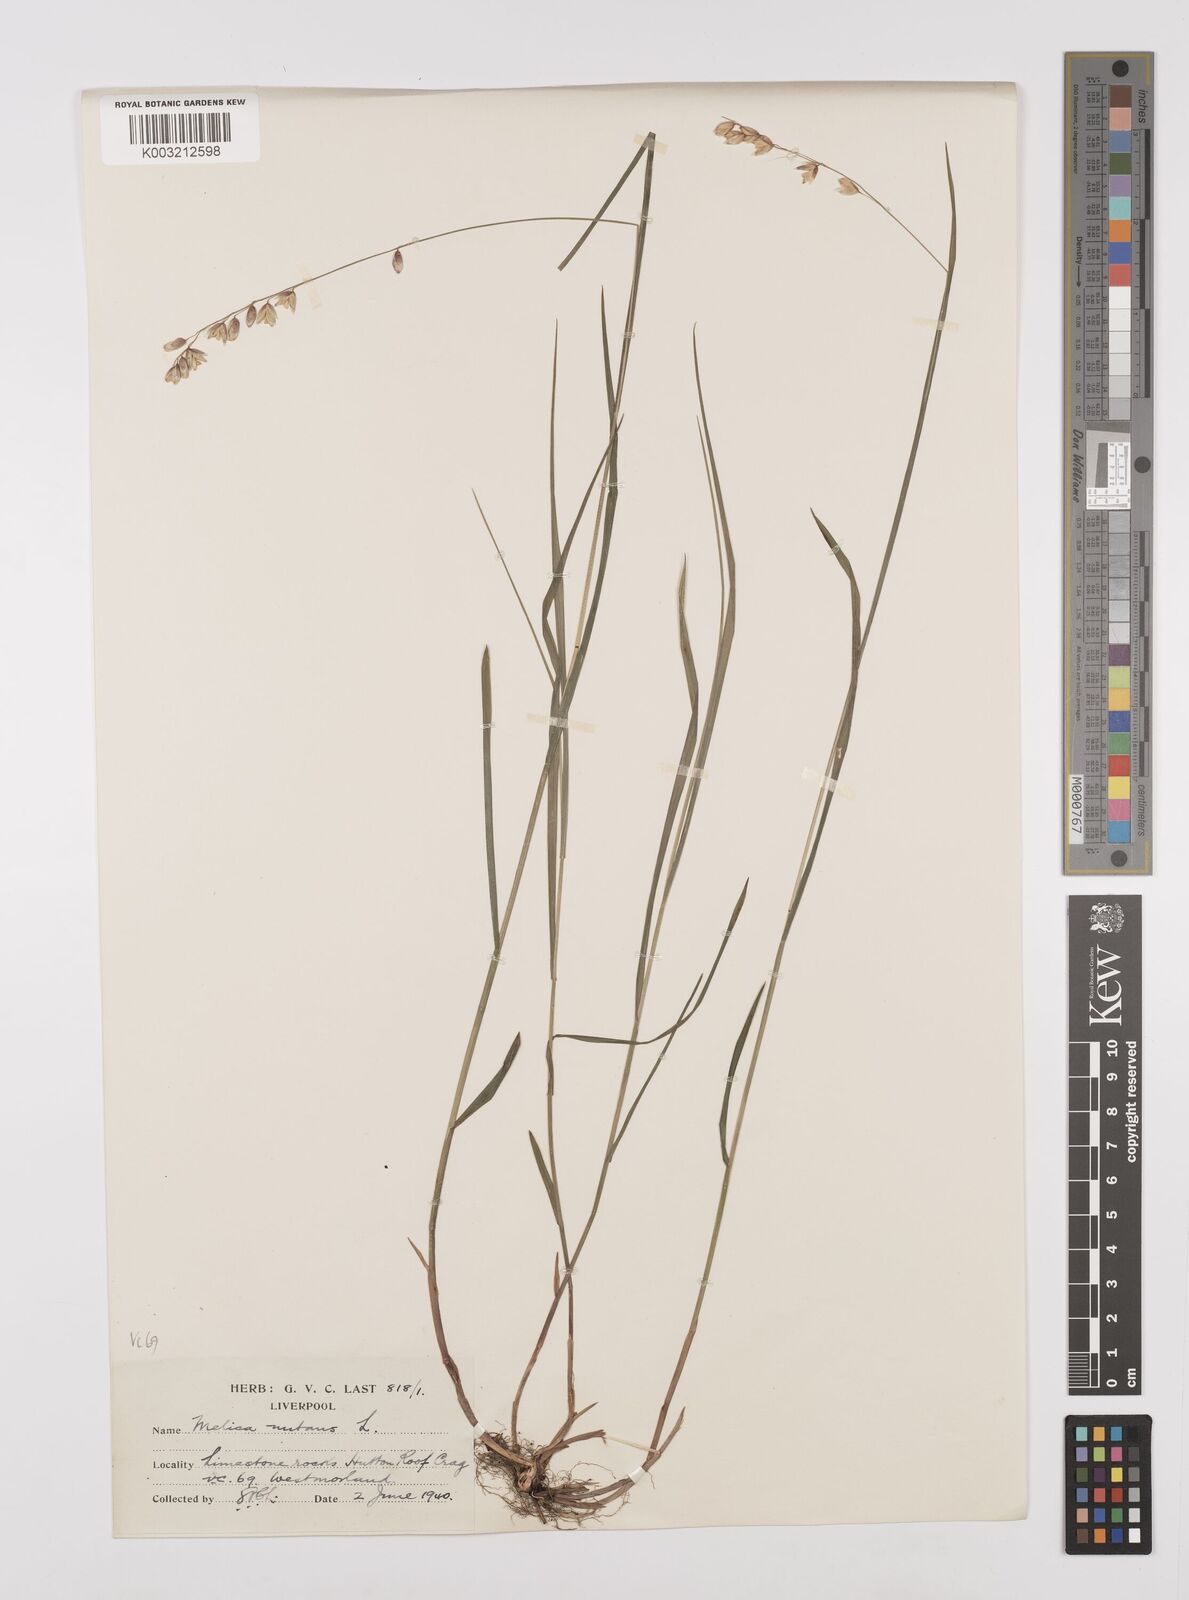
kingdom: Plantae
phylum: Tracheophyta
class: Liliopsida
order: Poales
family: Poaceae
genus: Melica
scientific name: Melica
